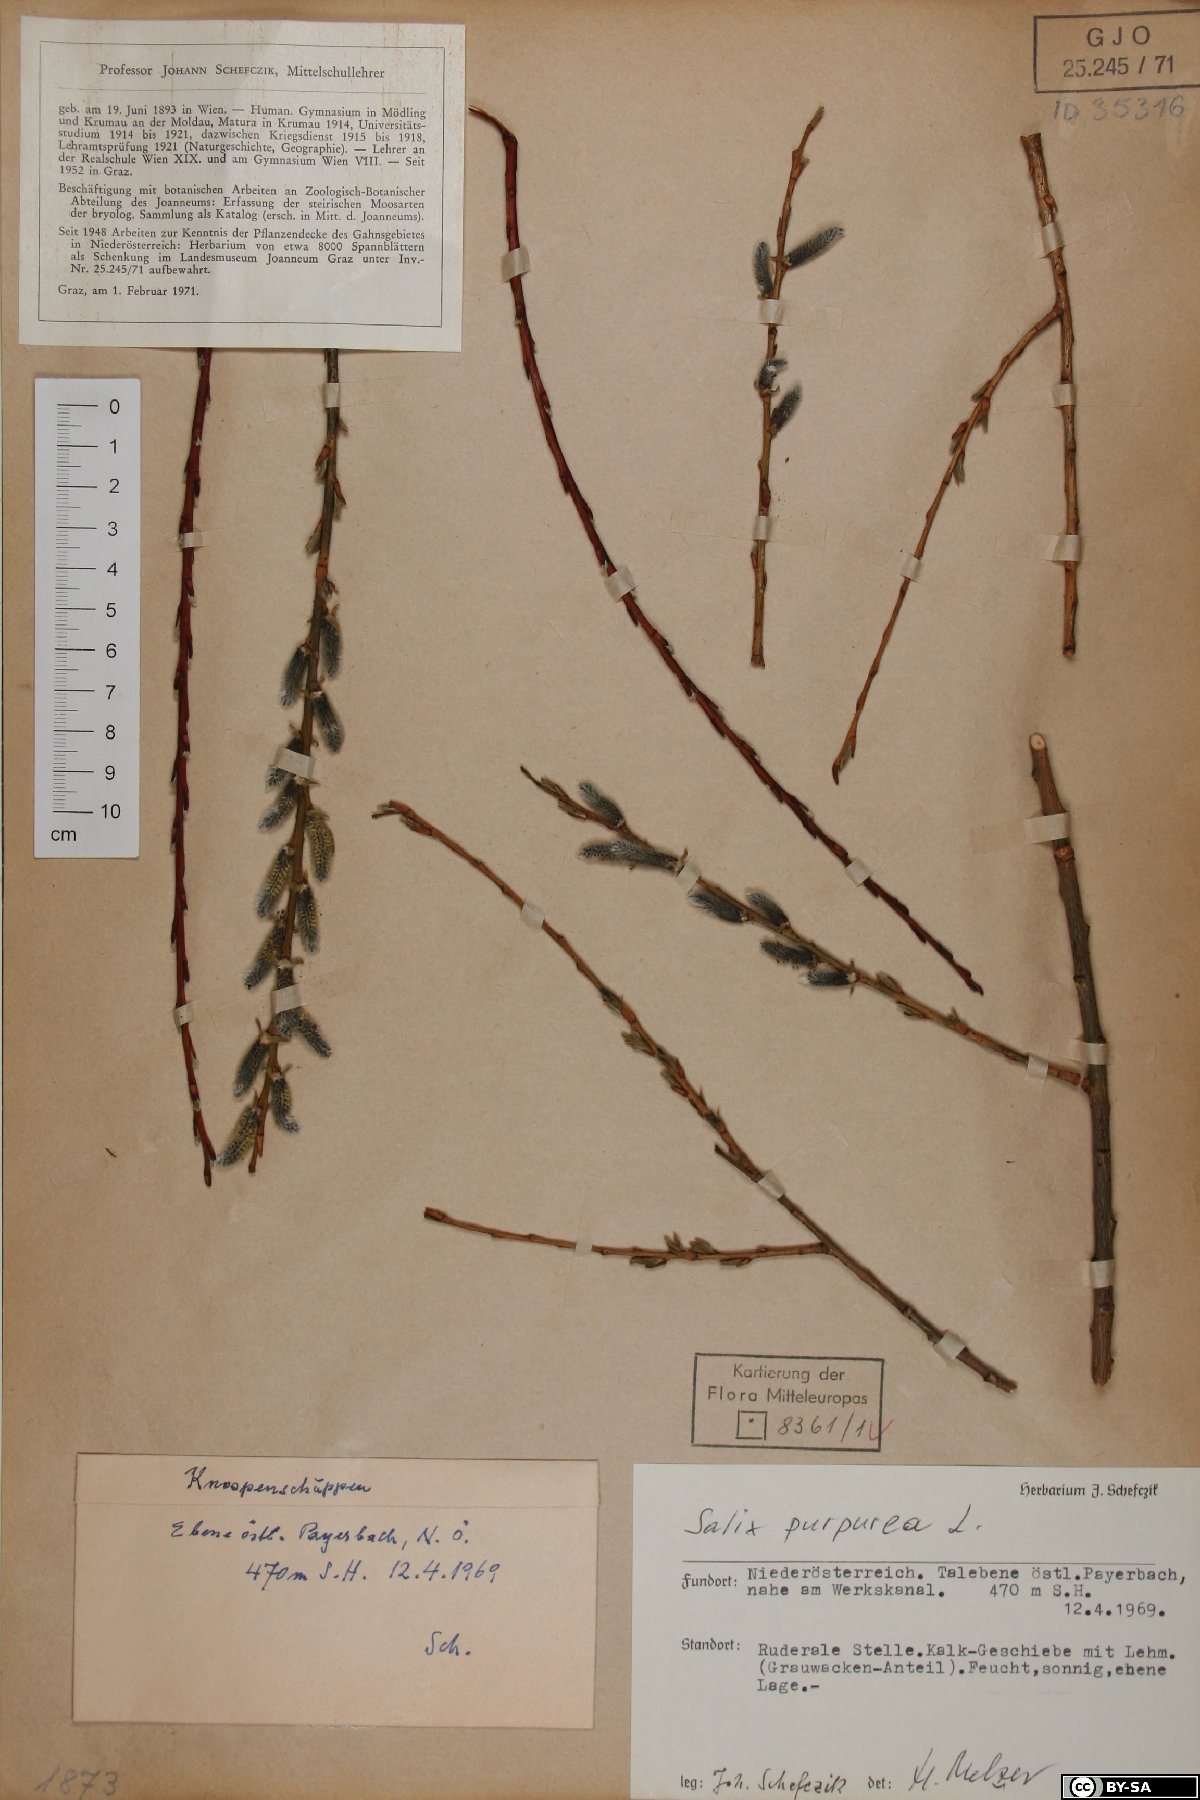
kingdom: Plantae
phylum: Tracheophyta
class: Magnoliopsida
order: Malpighiales
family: Salicaceae
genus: Salix
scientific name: Salix purpurea
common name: Purple willow
